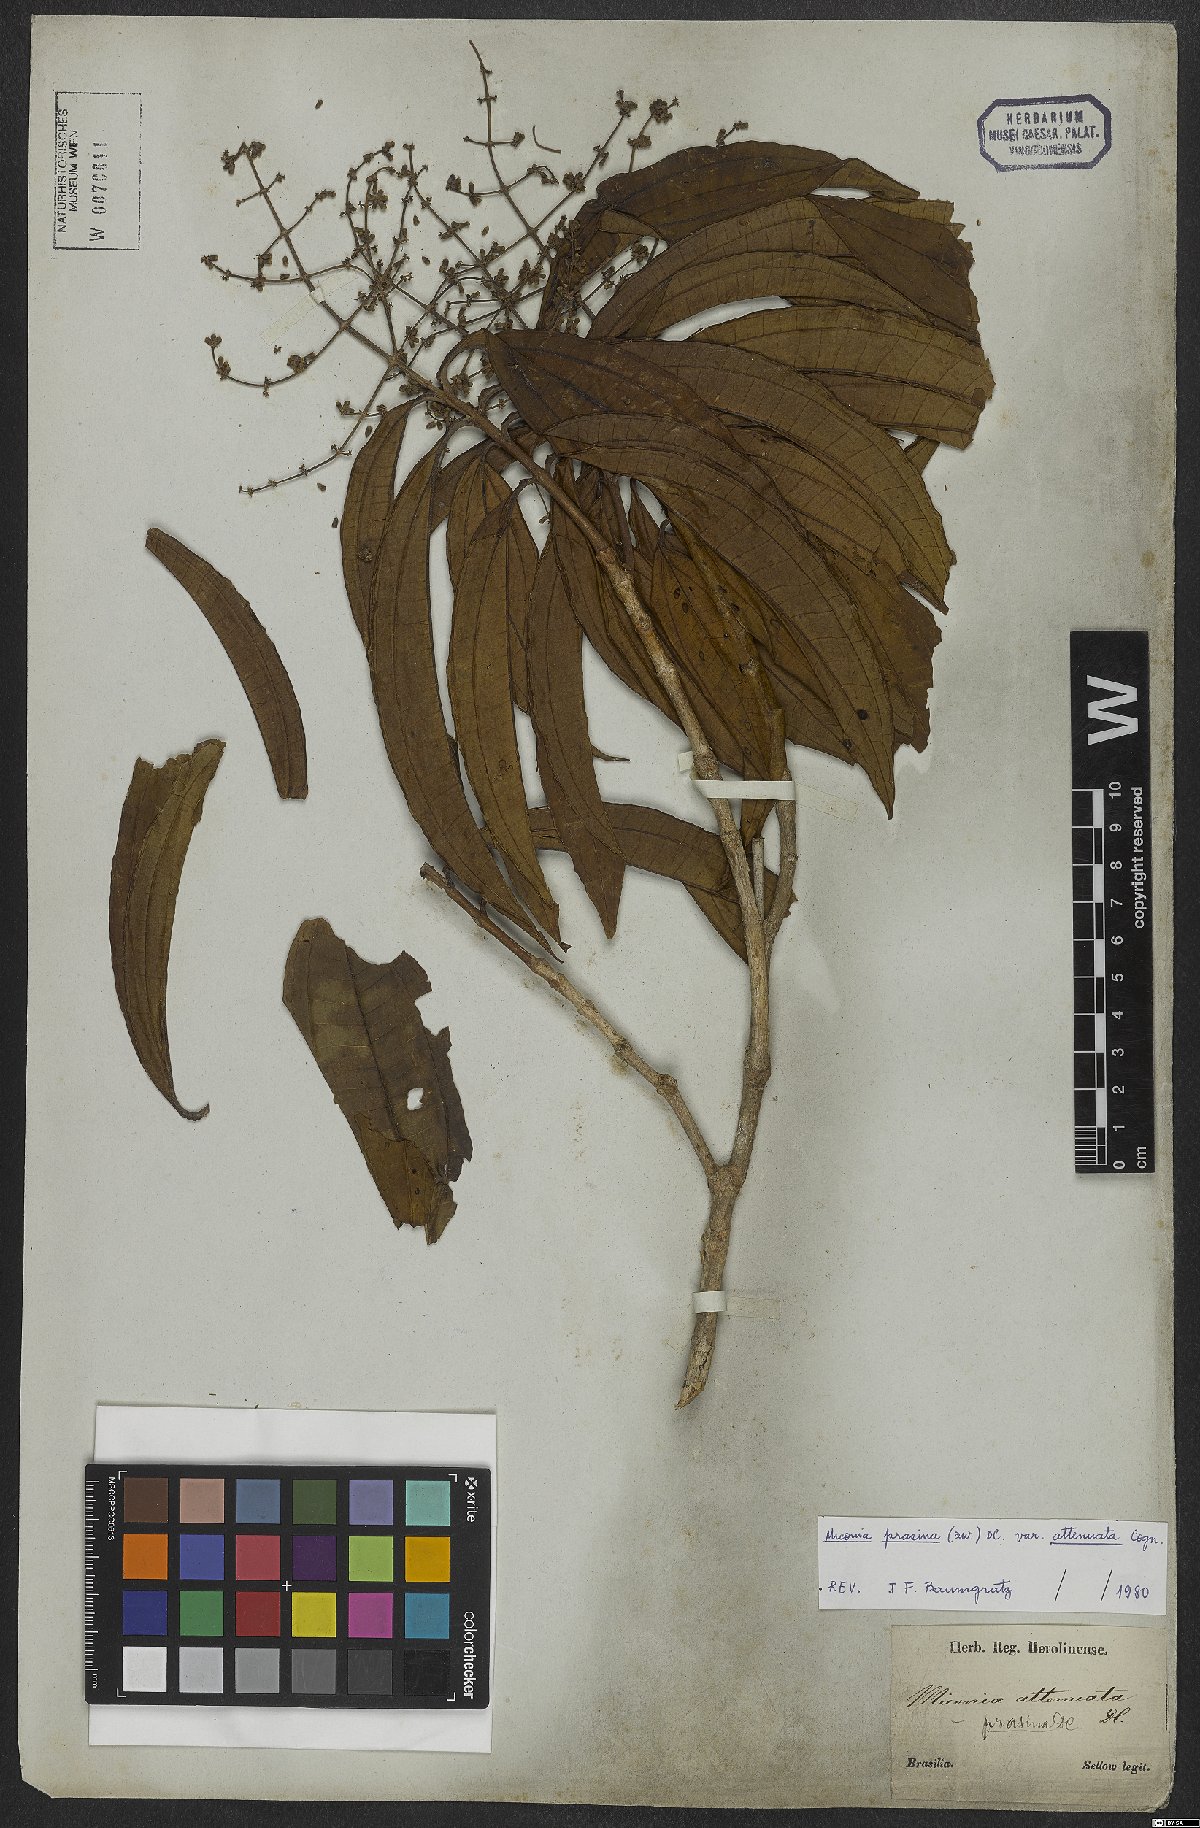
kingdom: Plantae
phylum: Tracheophyta
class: Magnoliopsida
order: Myrtales
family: Melastomataceae
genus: Miconia
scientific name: Miconia prasina
